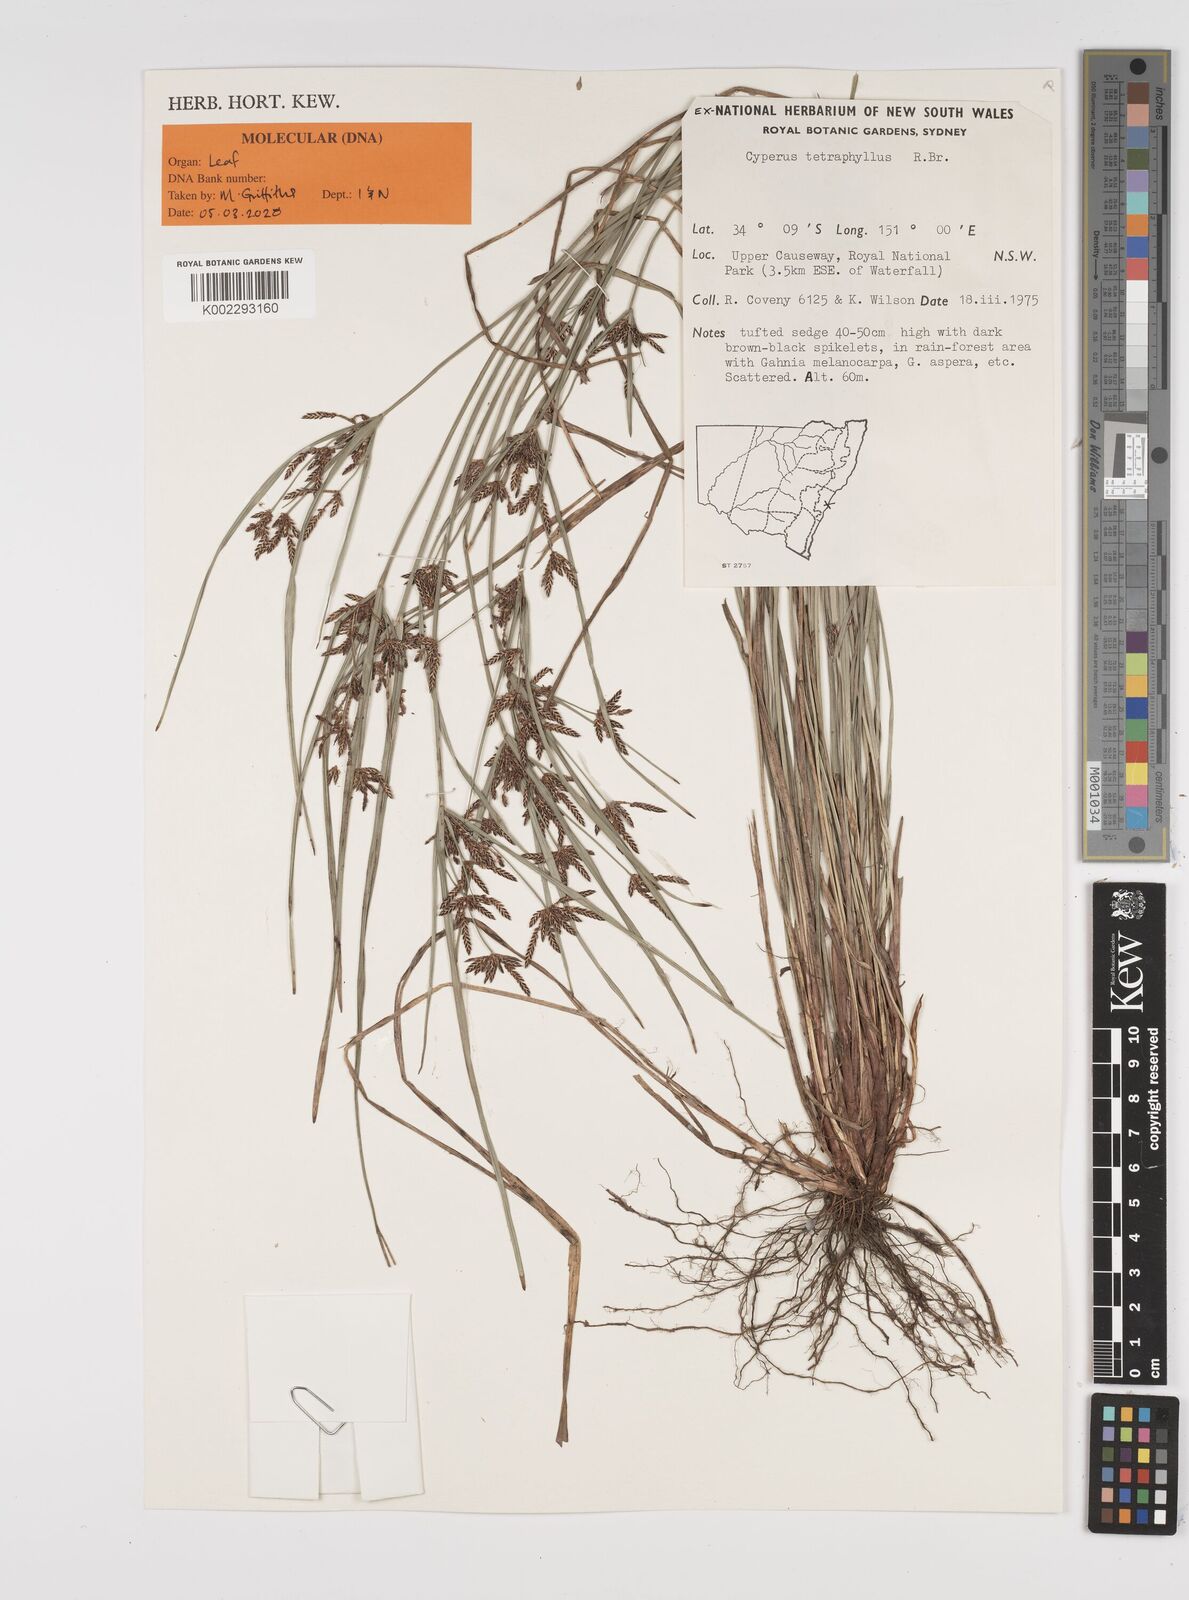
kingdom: Plantae
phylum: Tracheophyta
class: Liliopsida
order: Poales
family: Cyperaceae
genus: Cyperus
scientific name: Cyperus tetraphyllus
